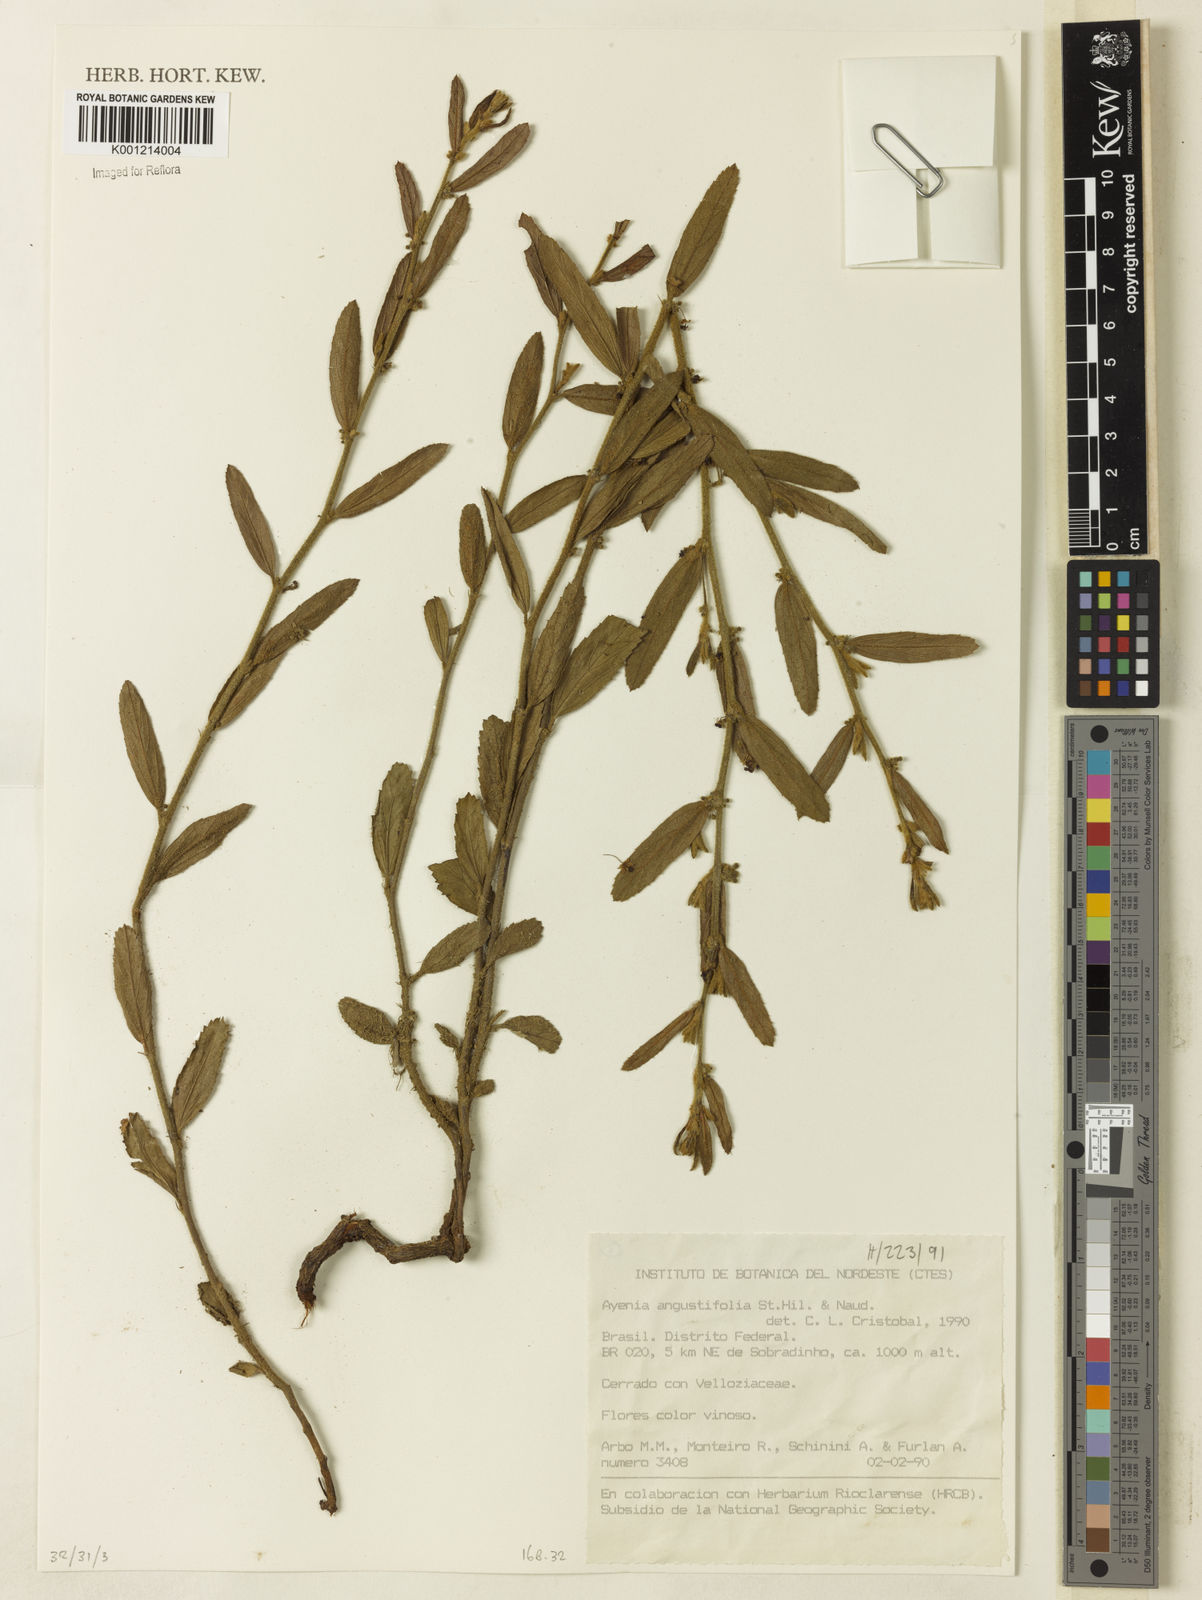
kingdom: Plantae
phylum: Tracheophyta
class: Magnoliopsida
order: Malvales
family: Malvaceae
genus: Ayenia
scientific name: Ayenia angustifolia
